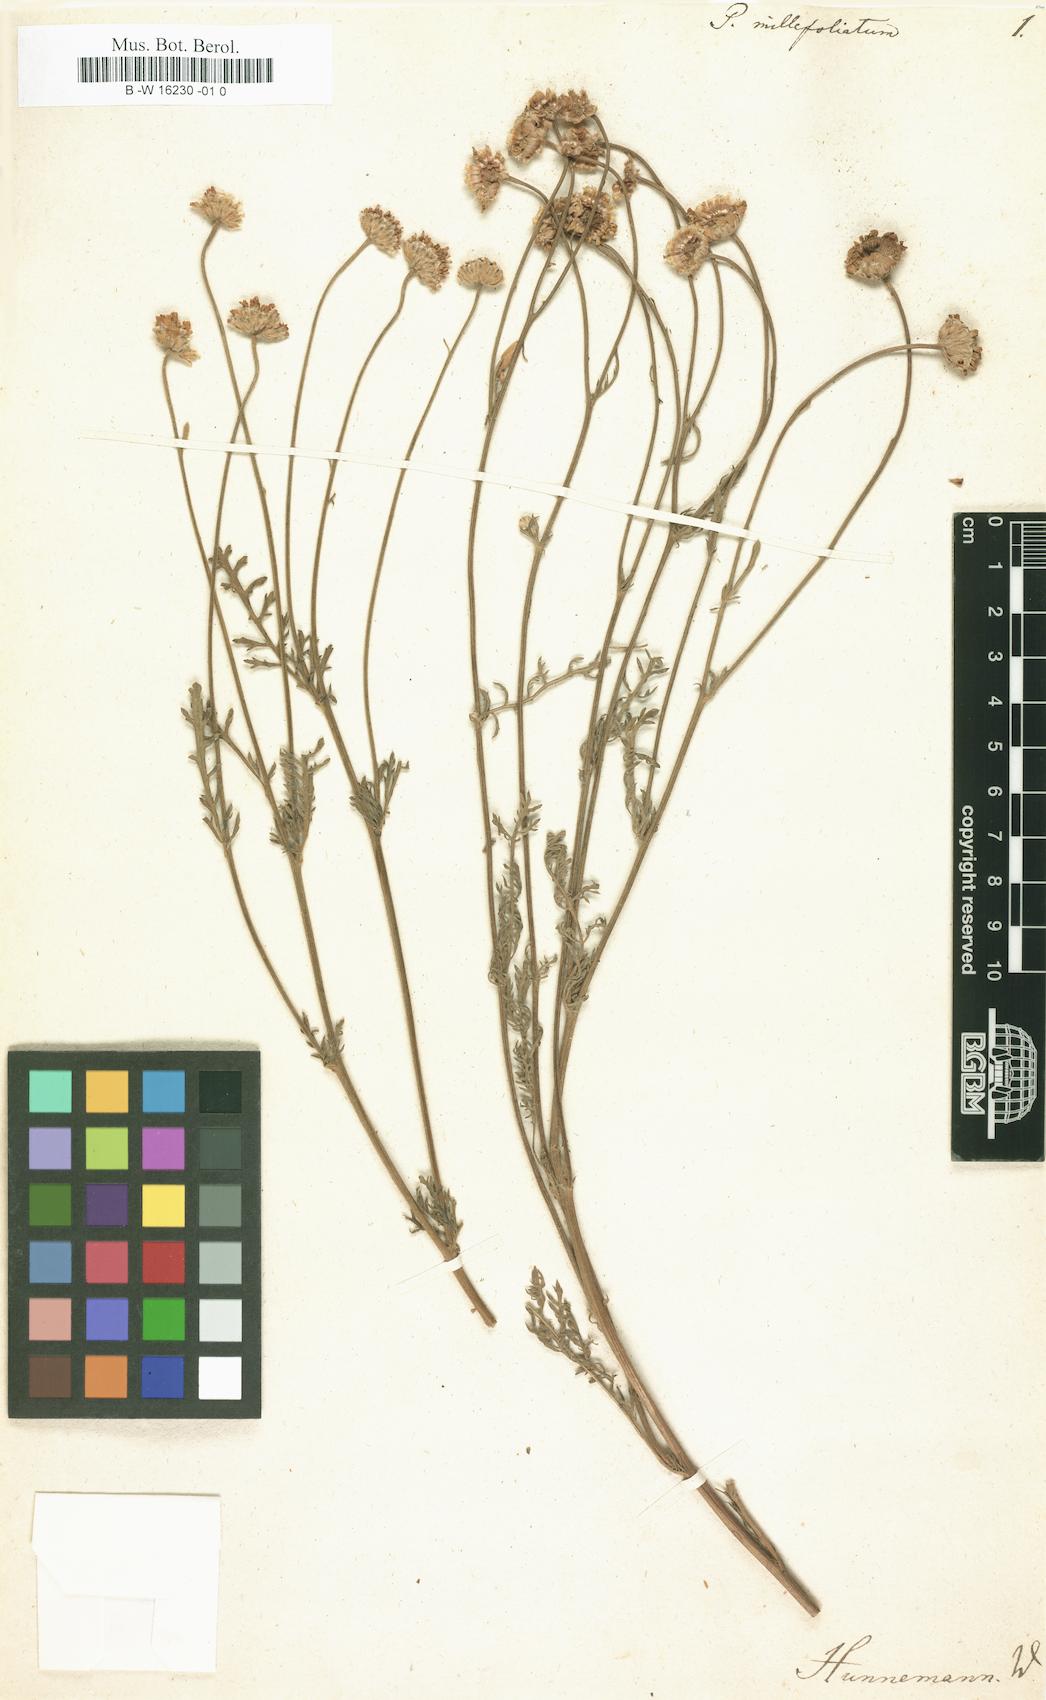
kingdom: Plantae
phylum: Tracheophyta
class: Magnoliopsida
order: Asterales
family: Asteraceae
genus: Tanacetum
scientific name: Tanacetum
